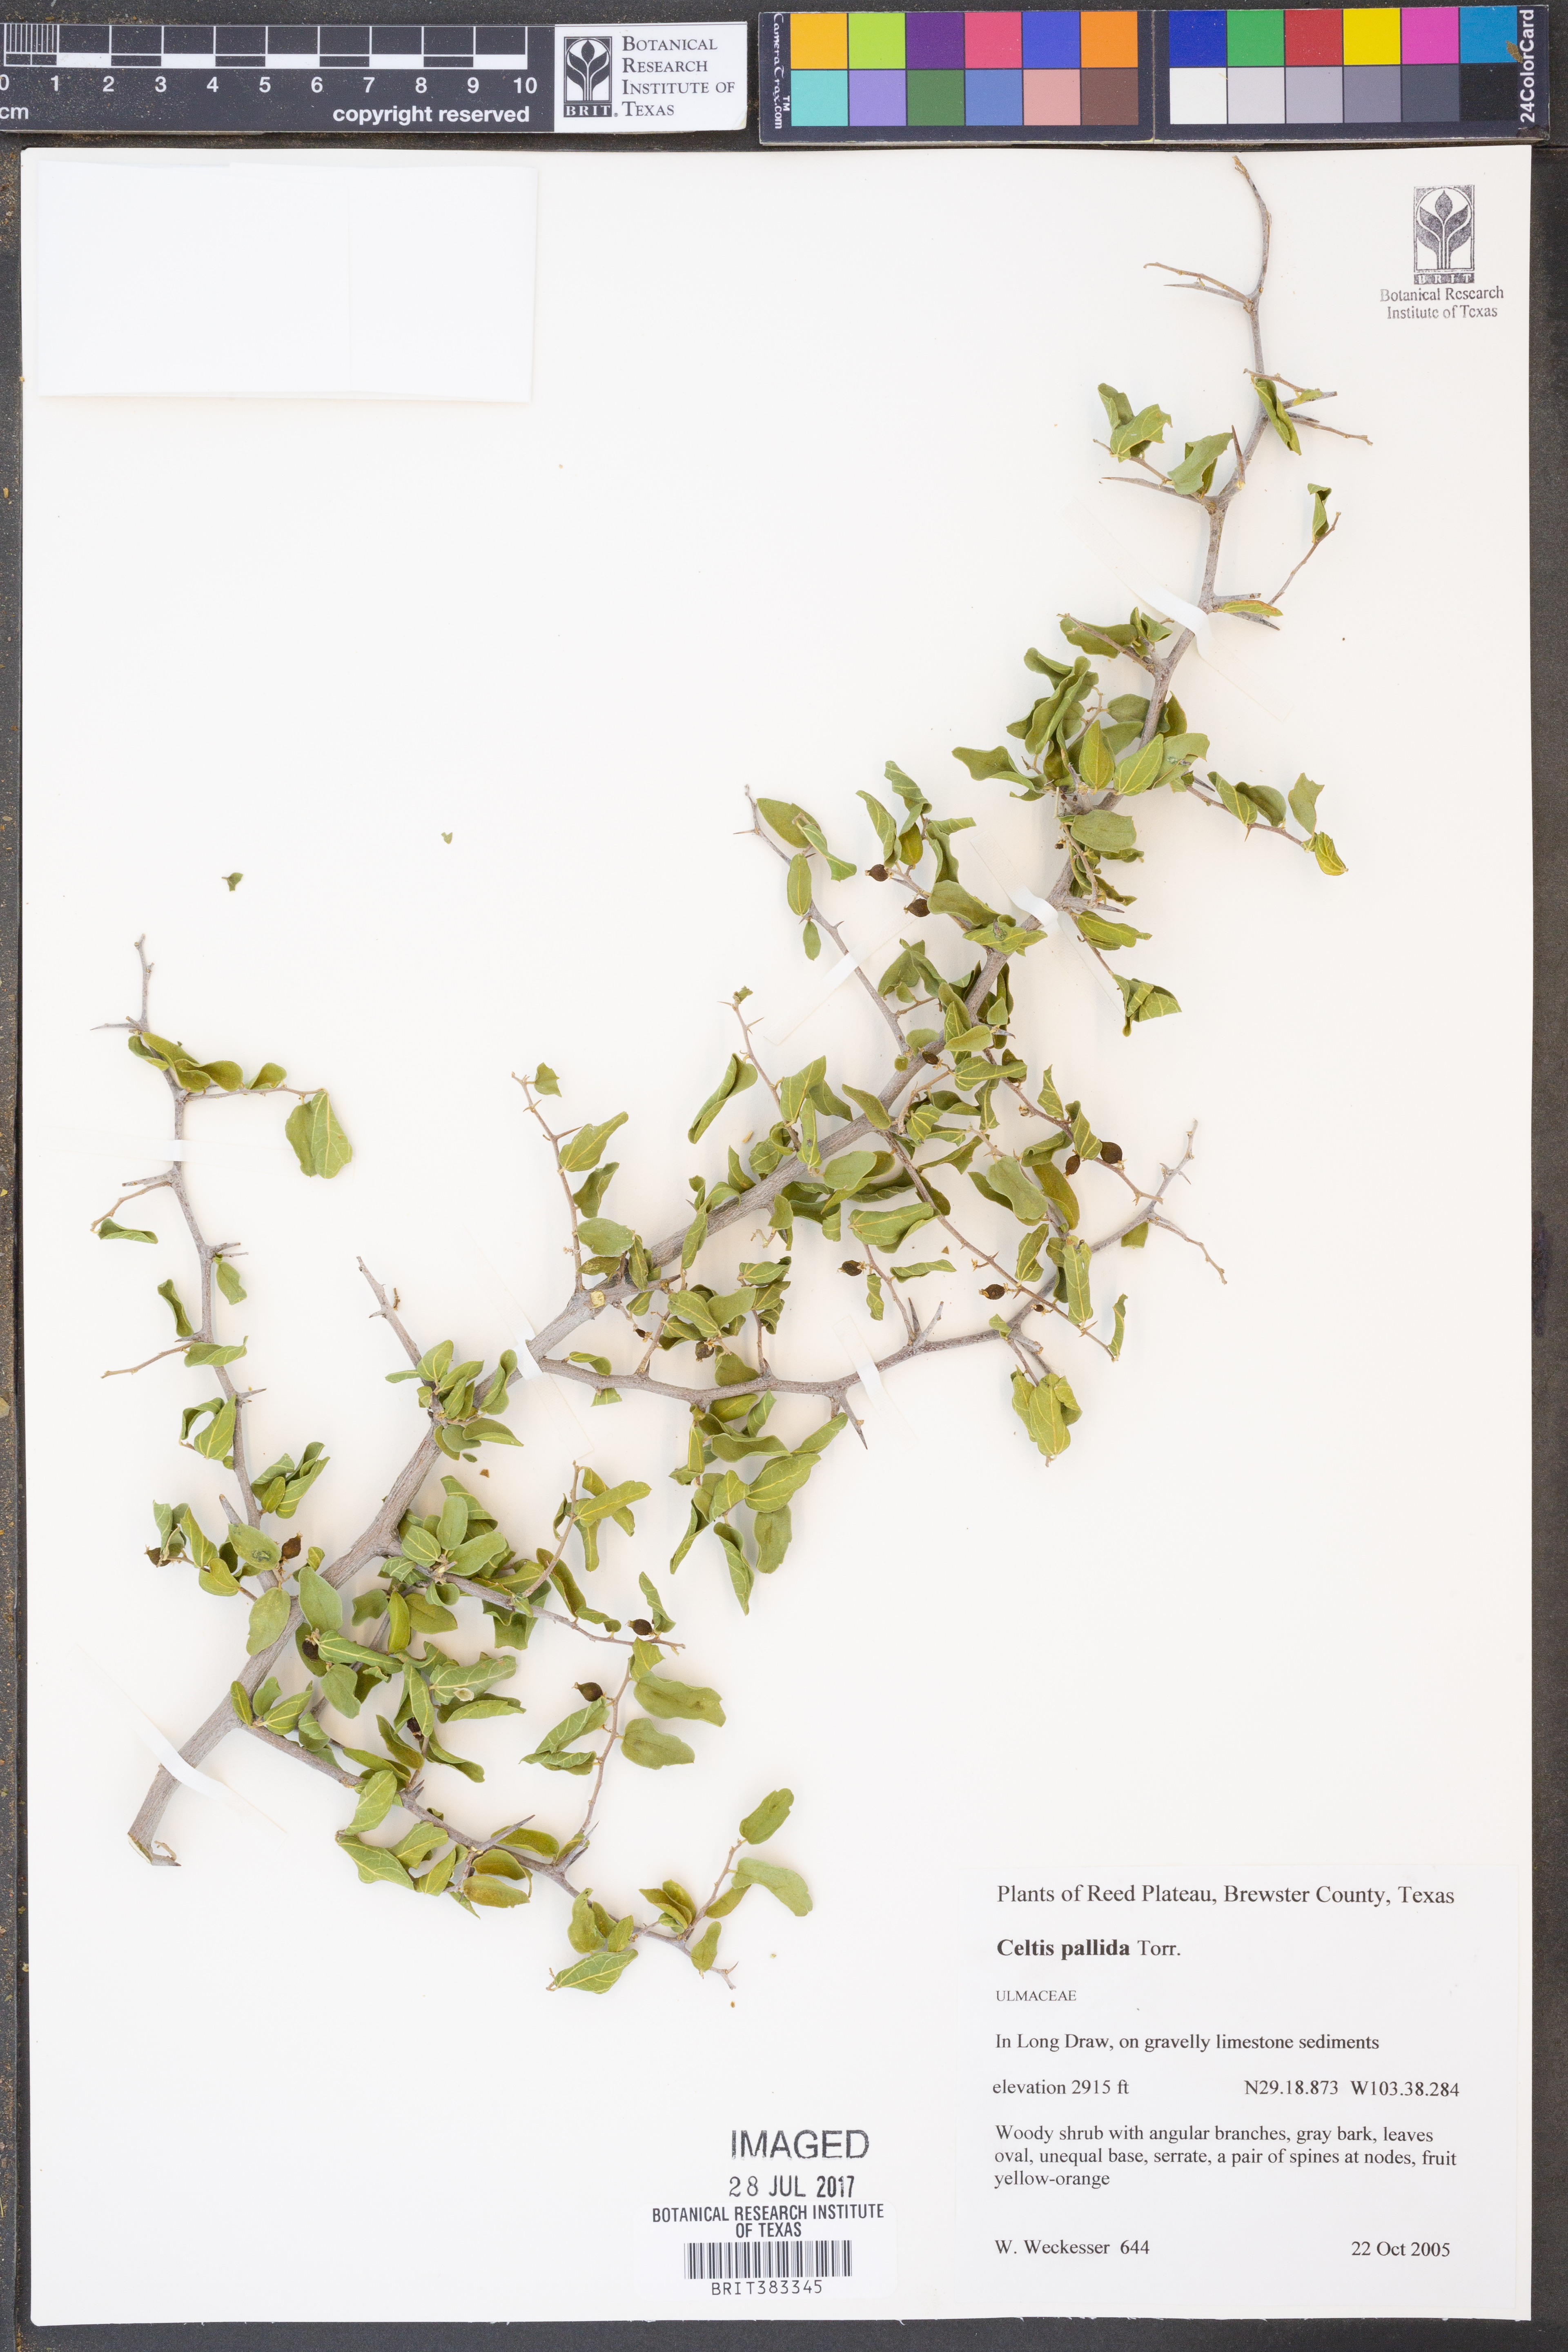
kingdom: Plantae
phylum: Tracheophyta
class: Magnoliopsida
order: Rosales
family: Cannabaceae
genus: Celtis
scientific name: Celtis pallida
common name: Desert hackberry
